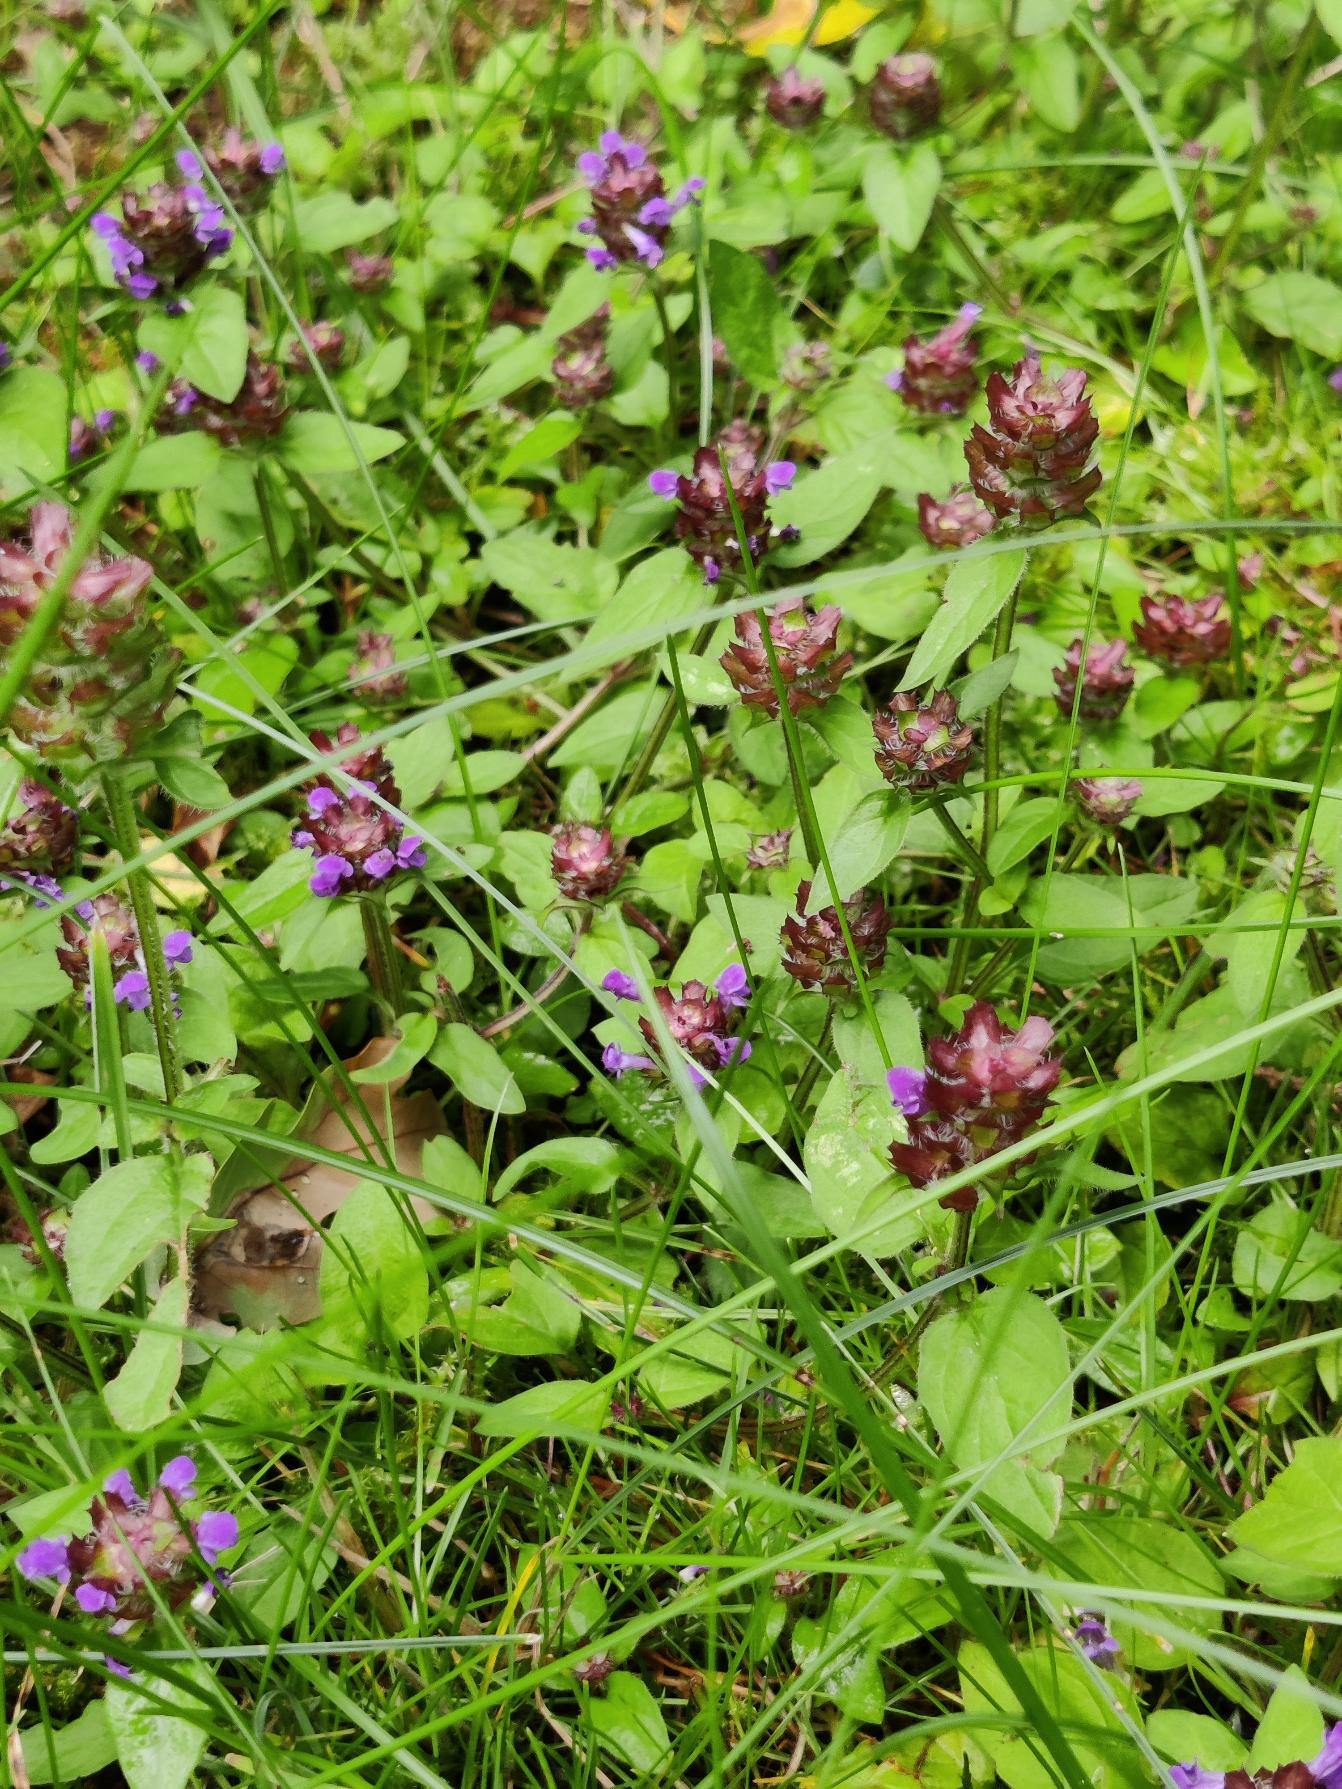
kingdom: Plantae
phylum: Tracheophyta
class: Magnoliopsida
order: Lamiales
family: Lamiaceae
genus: Prunella
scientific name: Prunella vulgaris
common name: Almindelig brunelle
